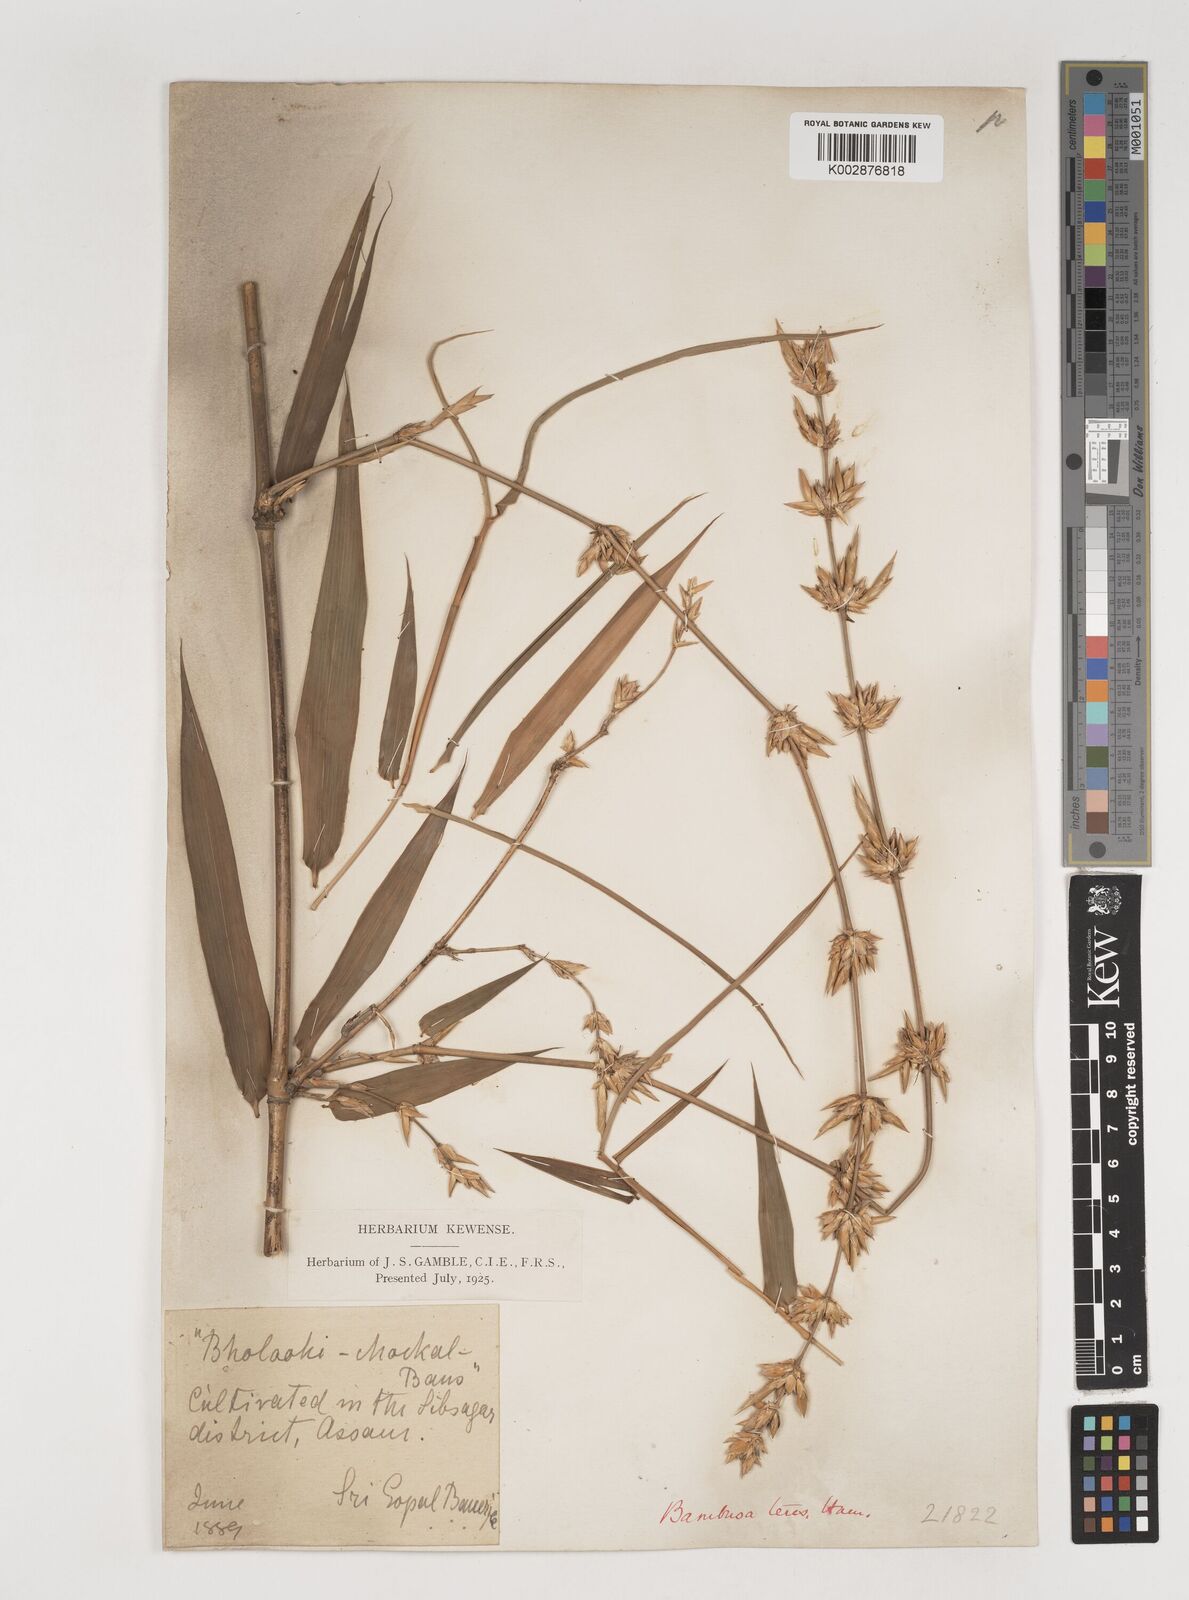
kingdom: Plantae
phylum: Tracheophyta
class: Liliopsida
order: Poales
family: Poaceae
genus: Bambusa
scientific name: Bambusa teres
